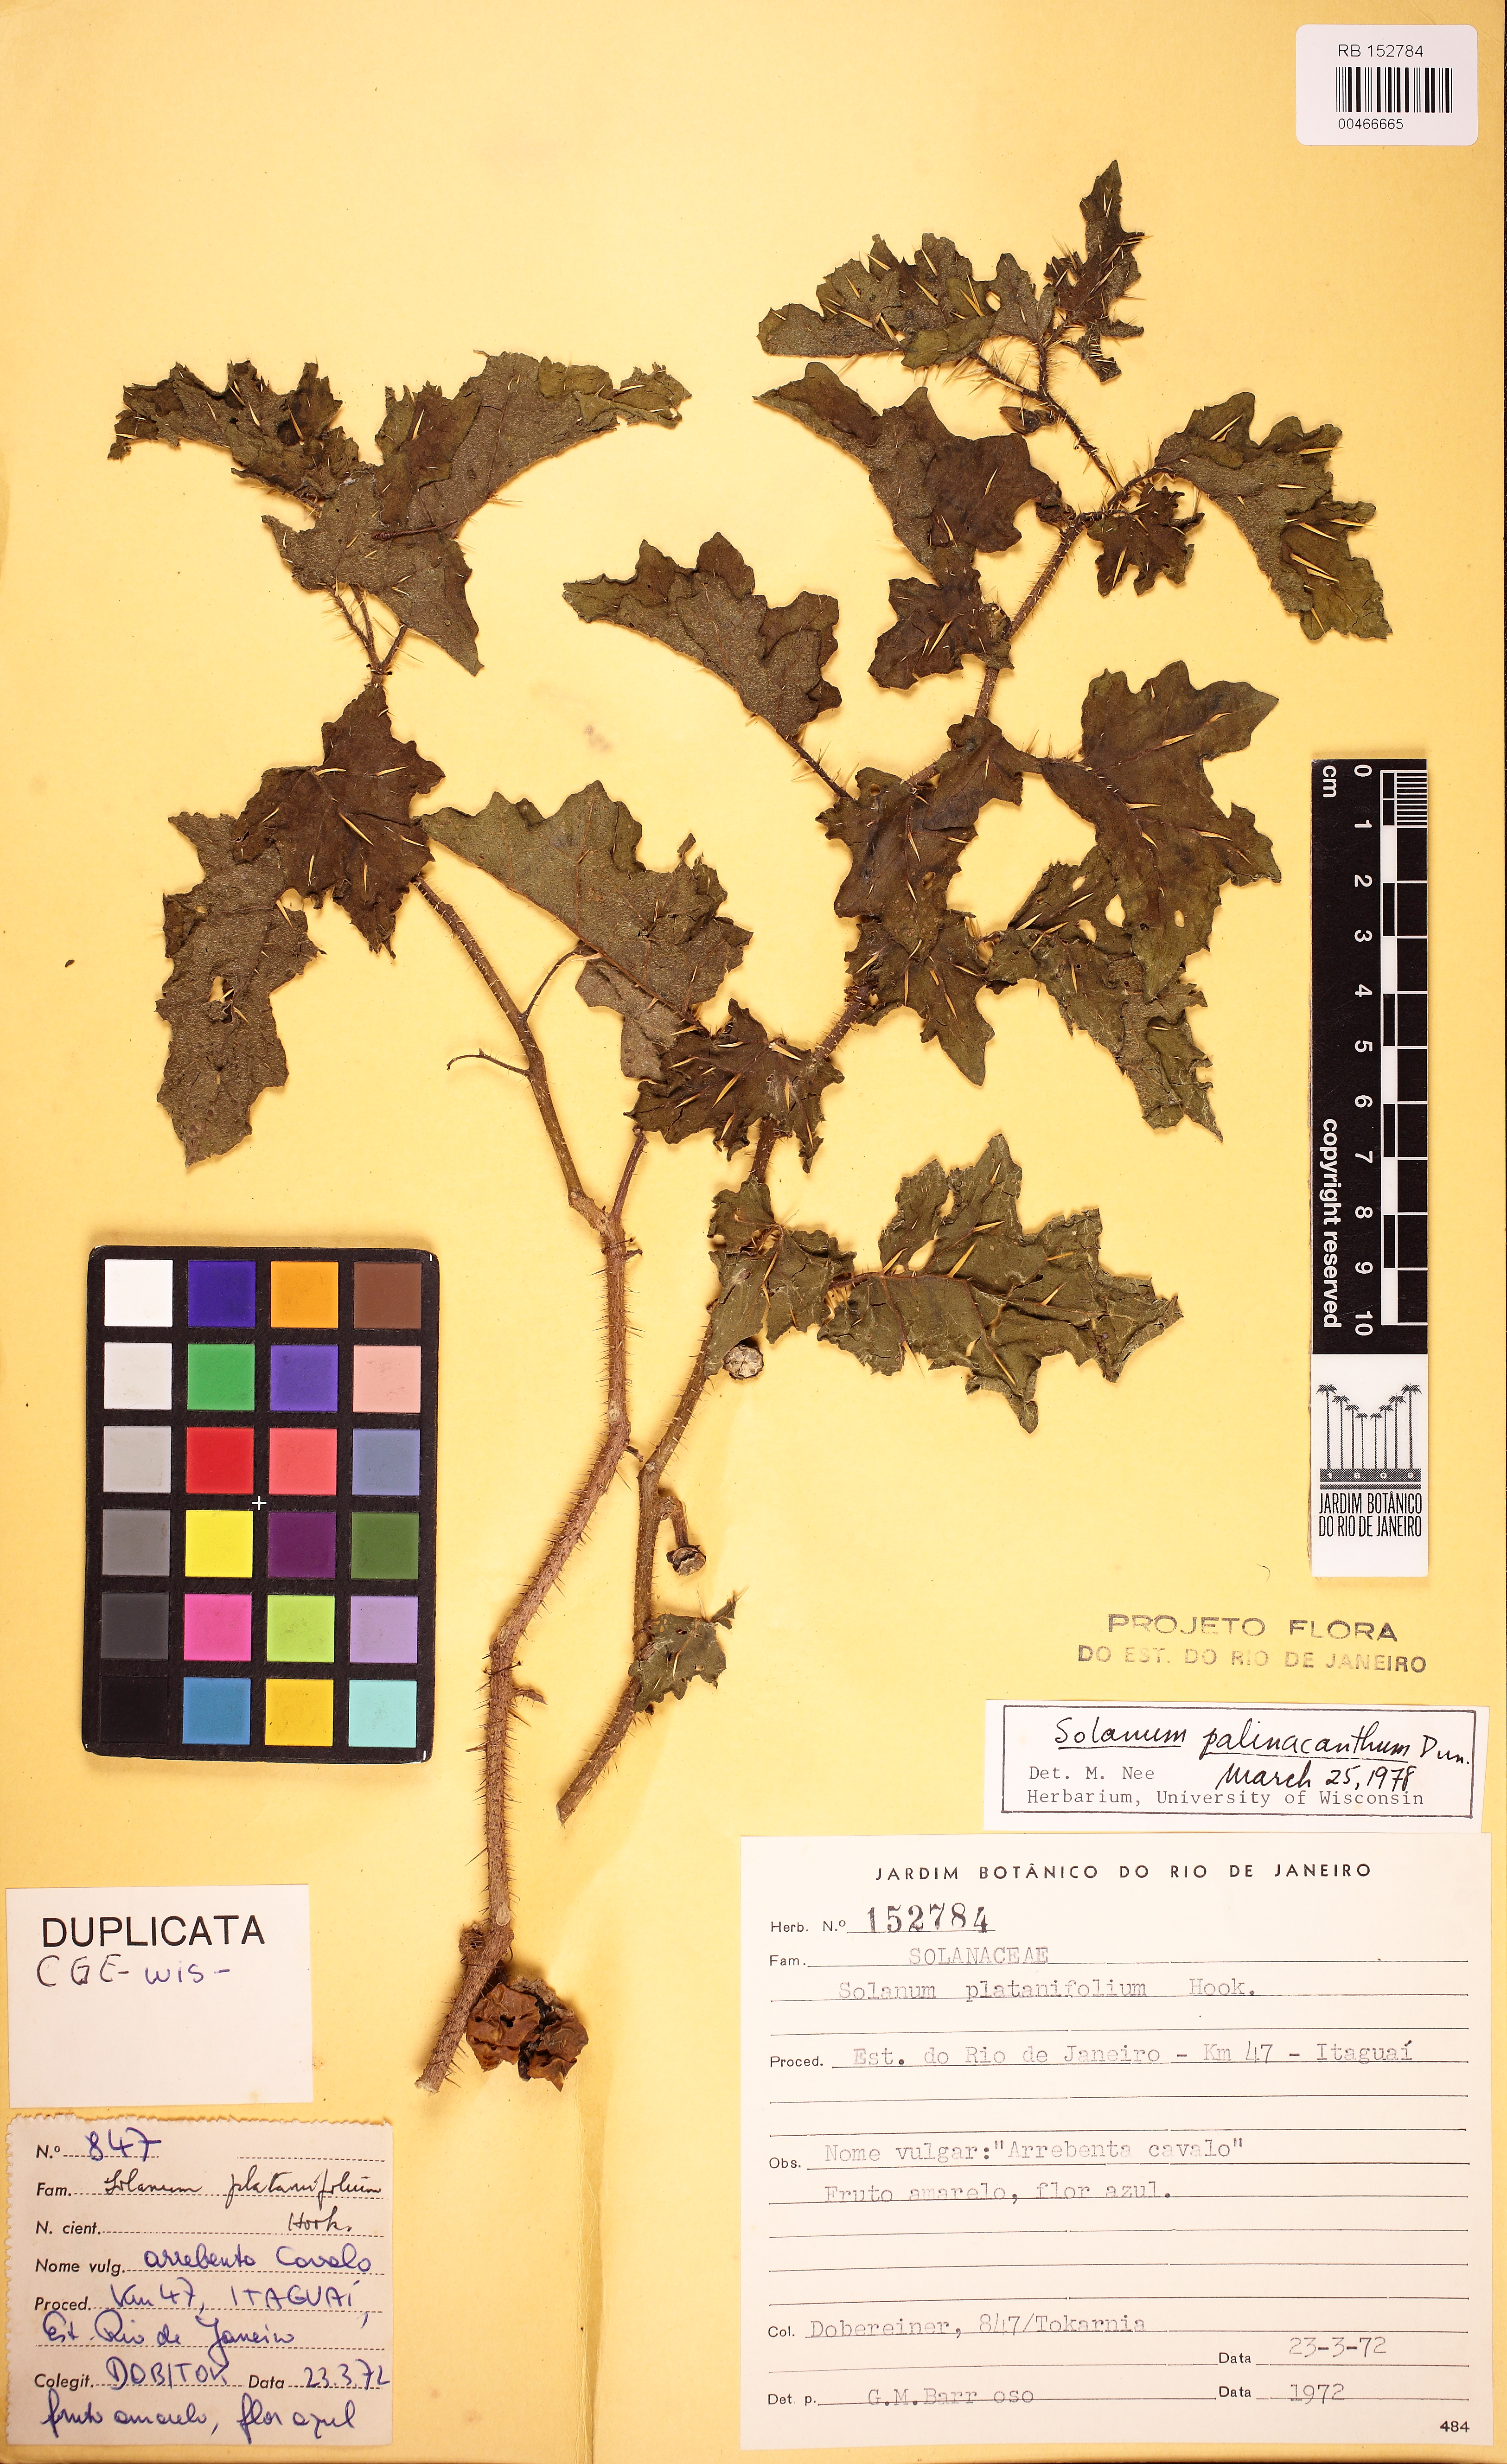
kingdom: Plantae
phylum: Tracheophyta
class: Magnoliopsida
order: Solanales
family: Solanaceae
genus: Solanum
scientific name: Solanum mammosum
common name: Nipple fruit
